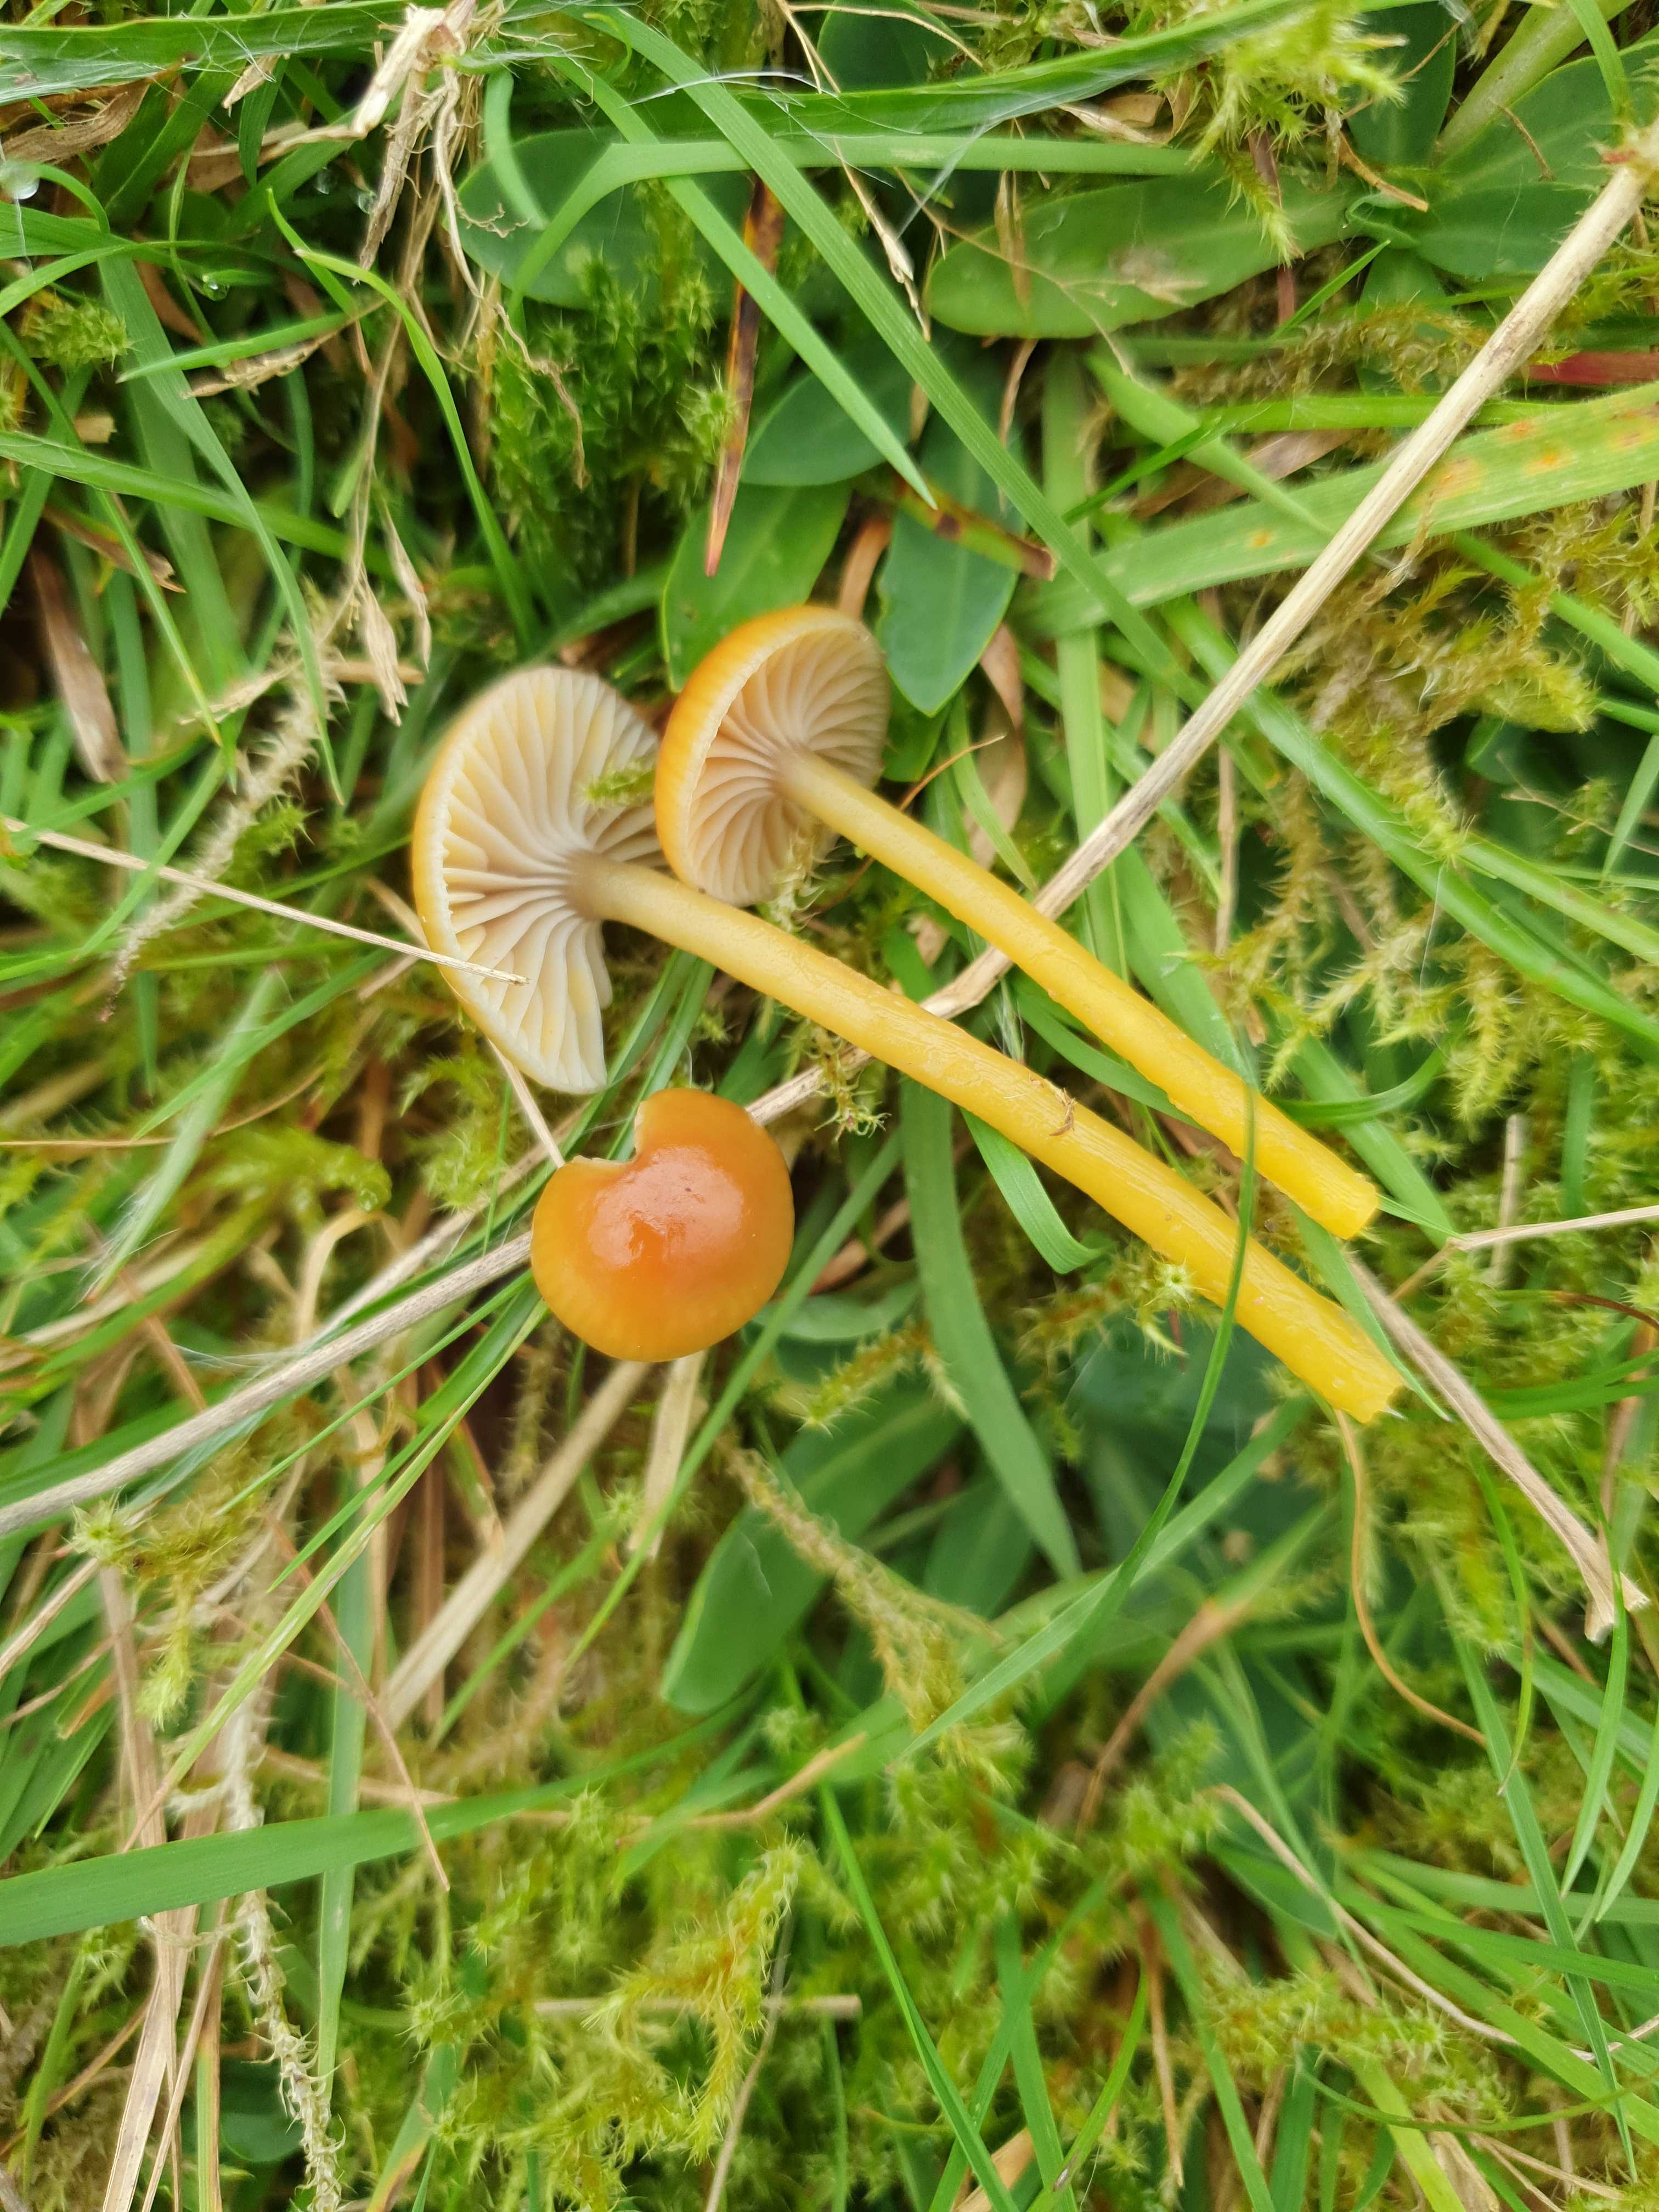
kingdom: Fungi
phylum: Basidiomycota
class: Agaricomycetes
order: Agaricales
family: Hygrophoraceae
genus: Gliophorus
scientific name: Gliophorus laetus
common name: brusk-vokshat
